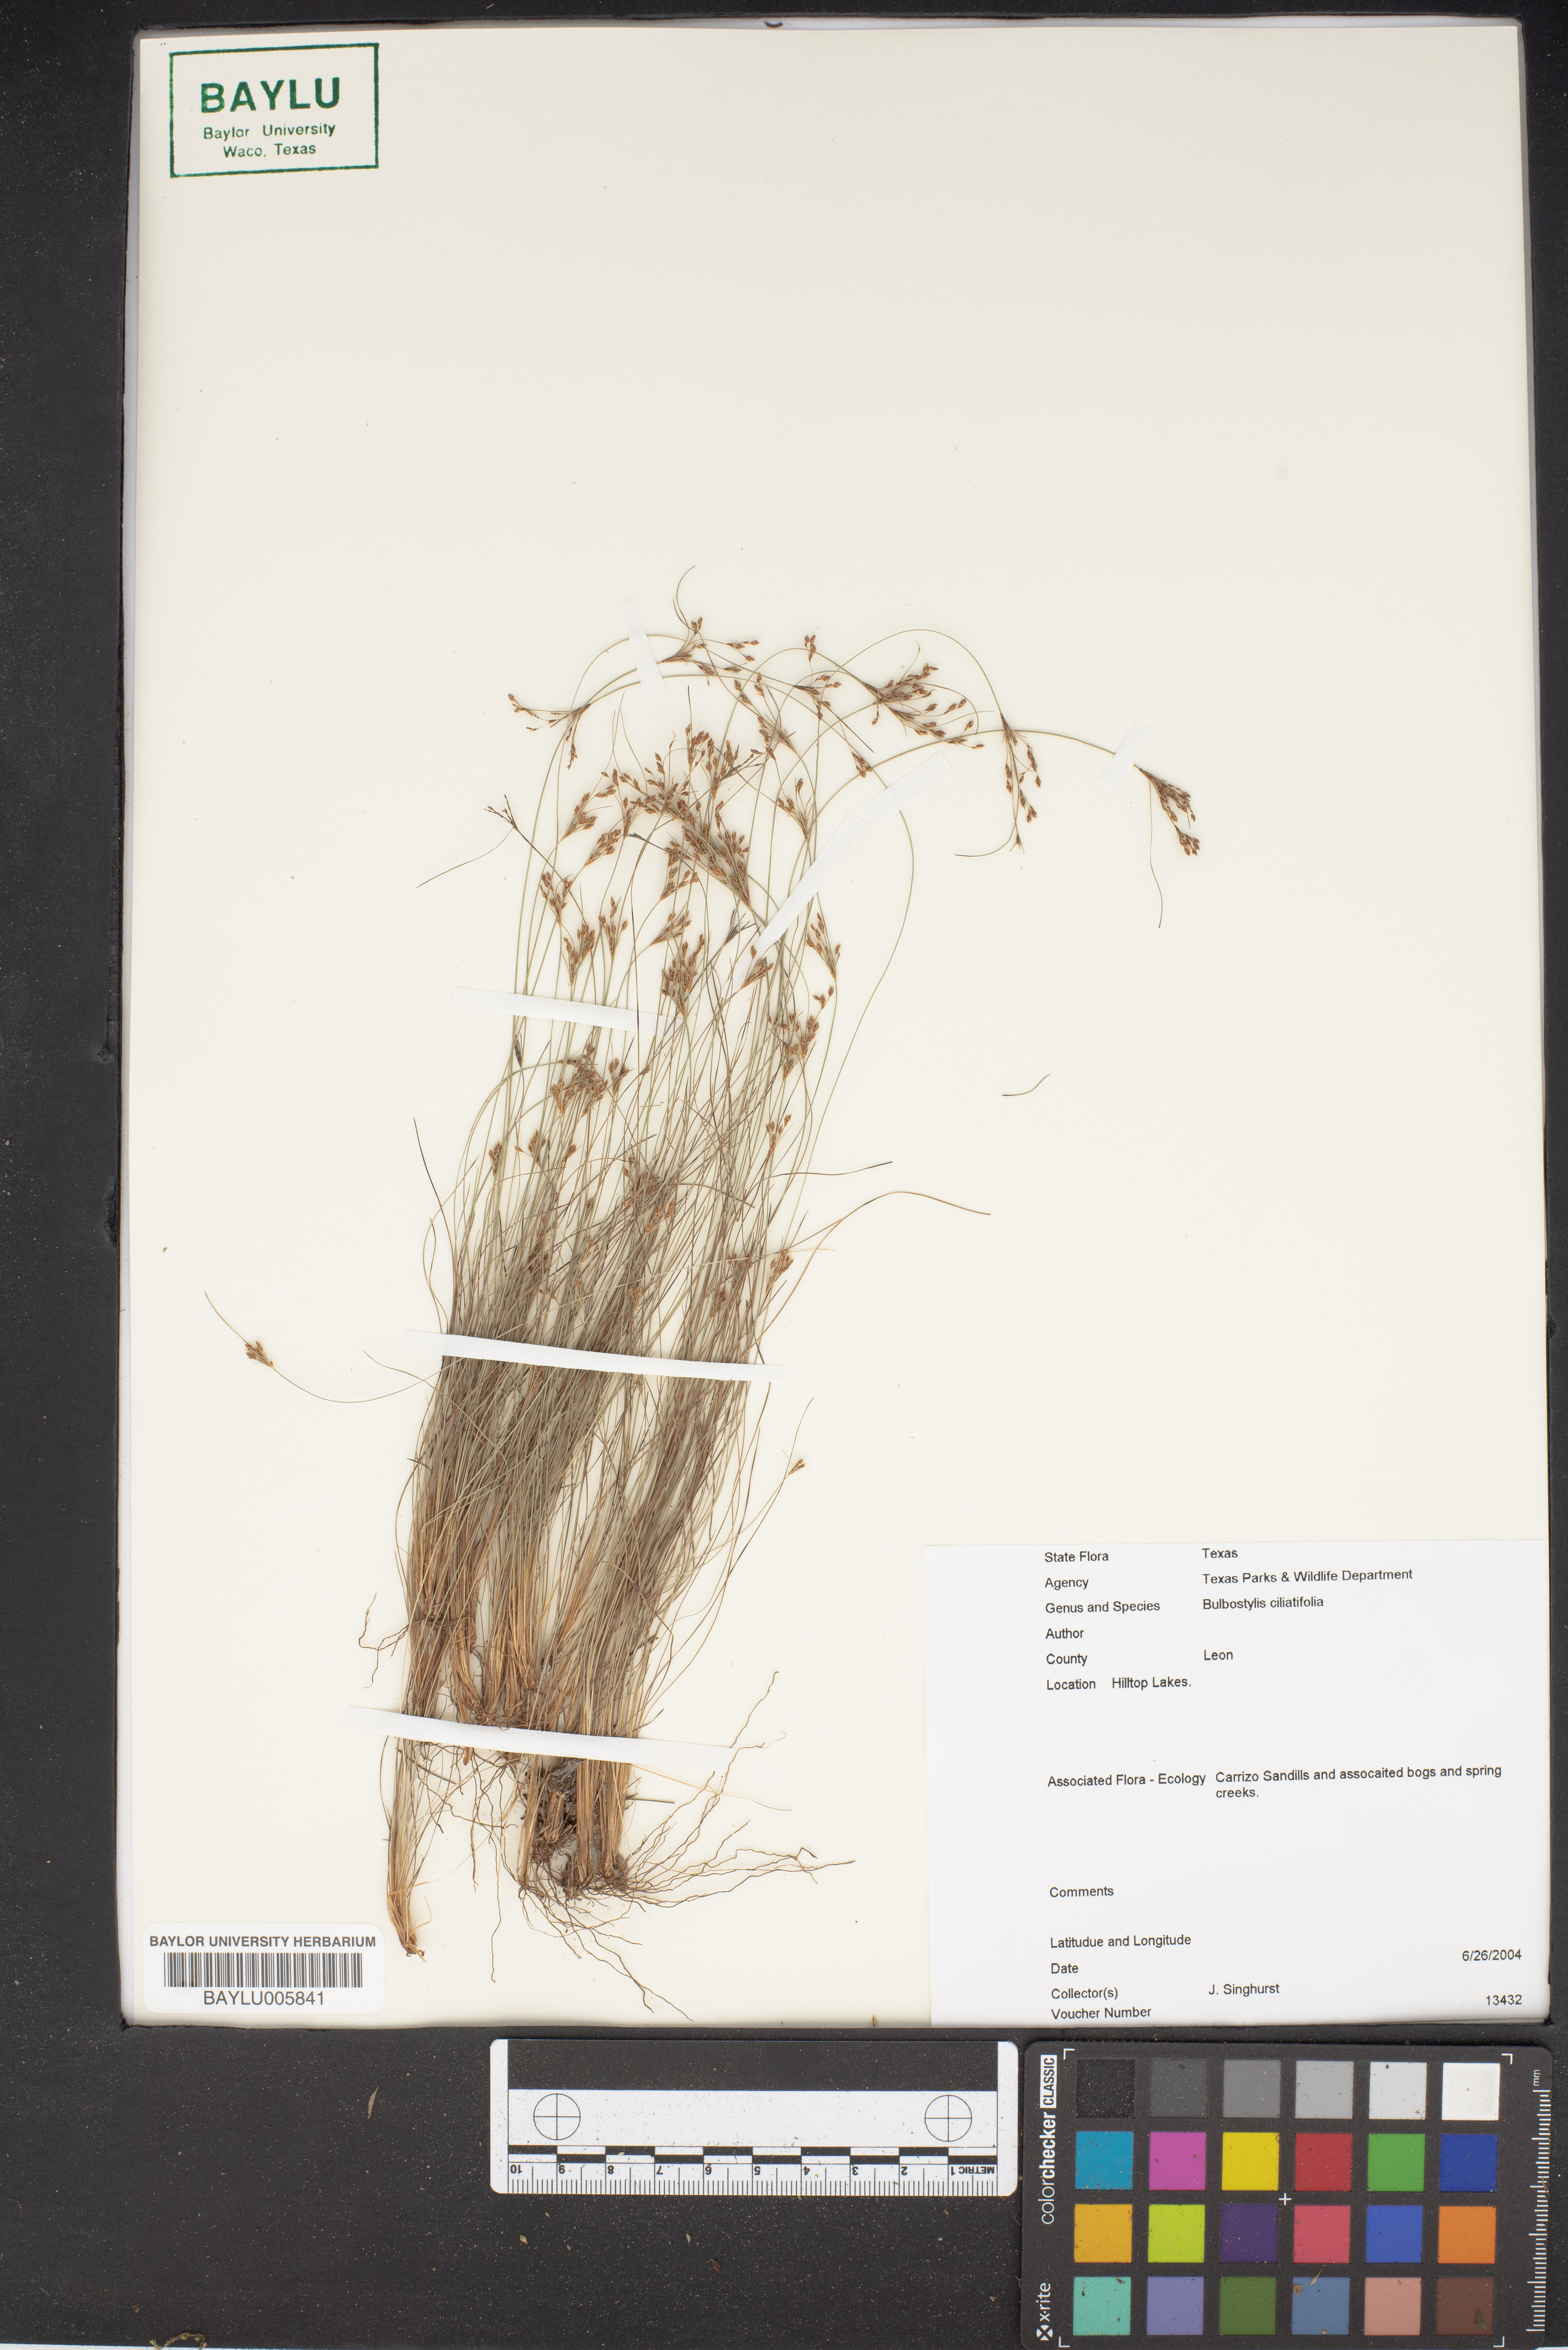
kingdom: Plantae
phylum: Tracheophyta
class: Liliopsida
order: Poales
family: Cyperaceae
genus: Bulbostylis
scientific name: Bulbostylis ciliatifolia
